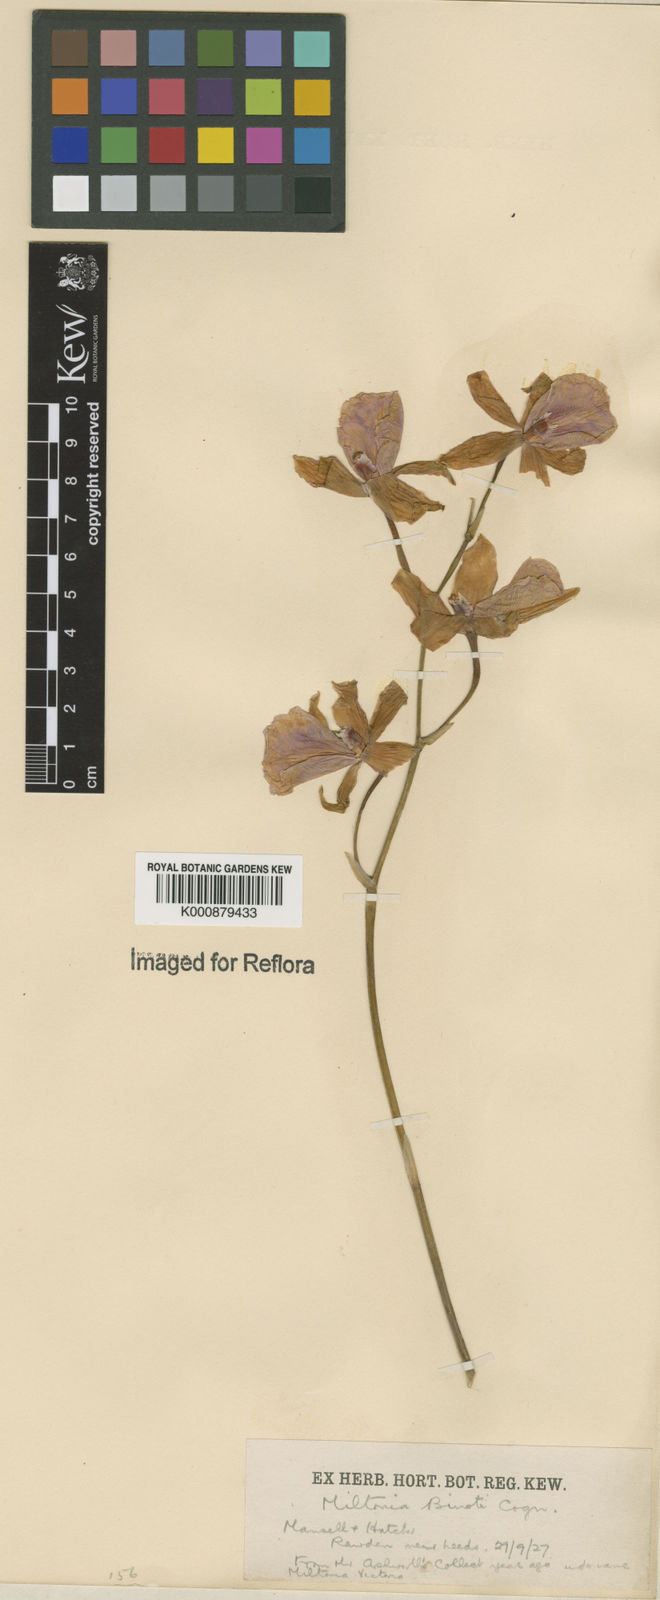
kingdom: Plantae
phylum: Tracheophyta
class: Liliopsida
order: Asparagales
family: Orchidaceae
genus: Miltonia
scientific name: Miltonia binotii
